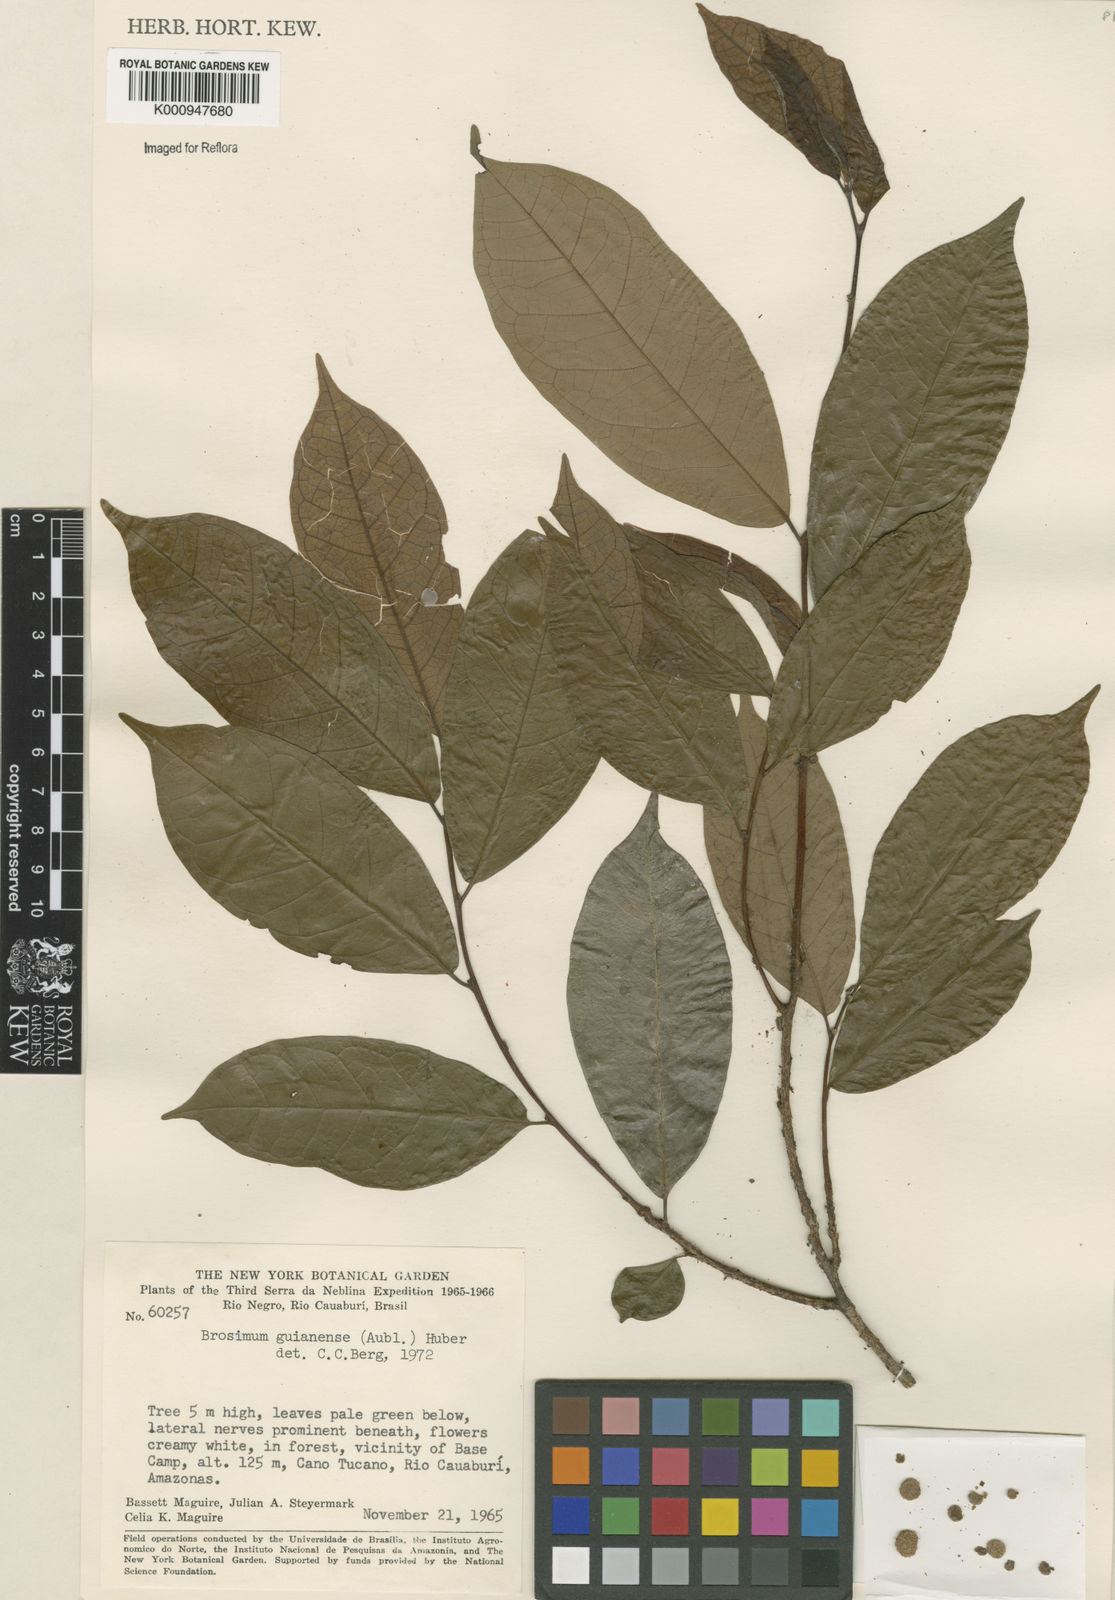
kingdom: Plantae
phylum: Tracheophyta
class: Magnoliopsida
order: Rosales
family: Moraceae
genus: Brosimum
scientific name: Brosimum
